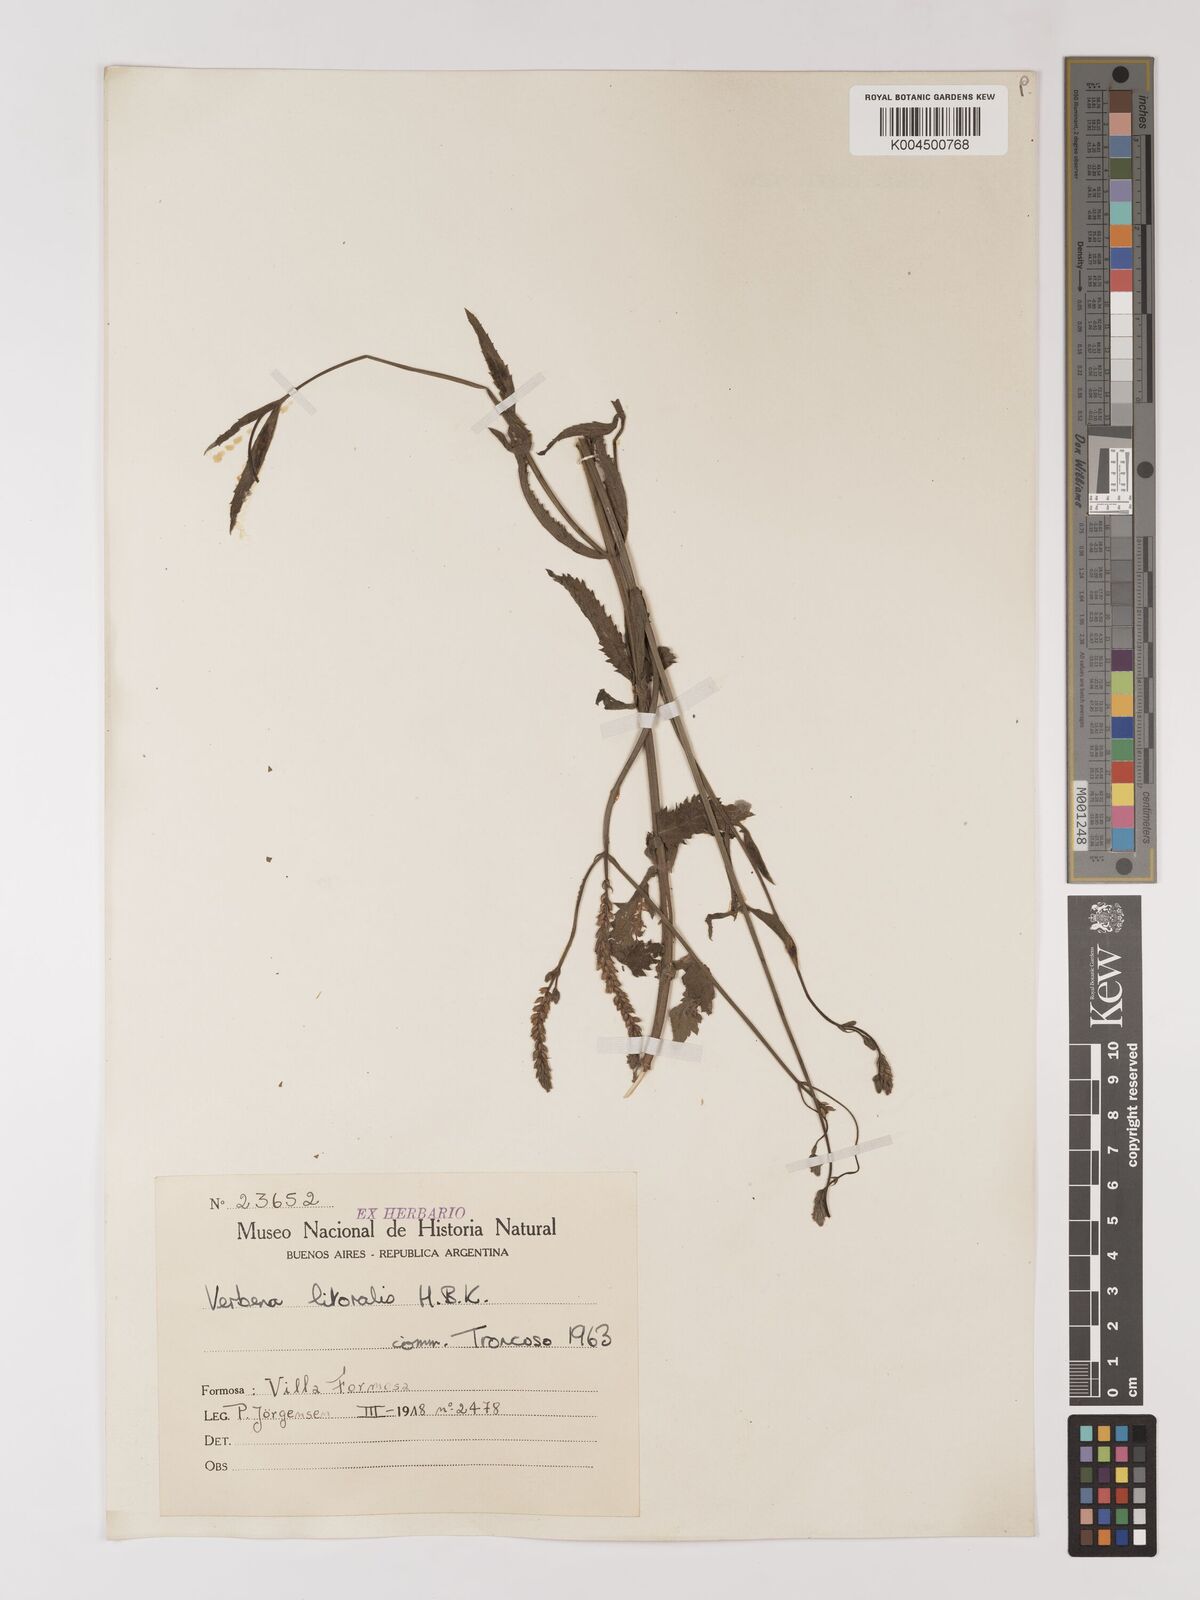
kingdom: Plantae
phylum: Tracheophyta
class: Magnoliopsida
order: Lamiales
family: Verbenaceae
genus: Verbena
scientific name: Verbena litoralis
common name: Seashore vervain
